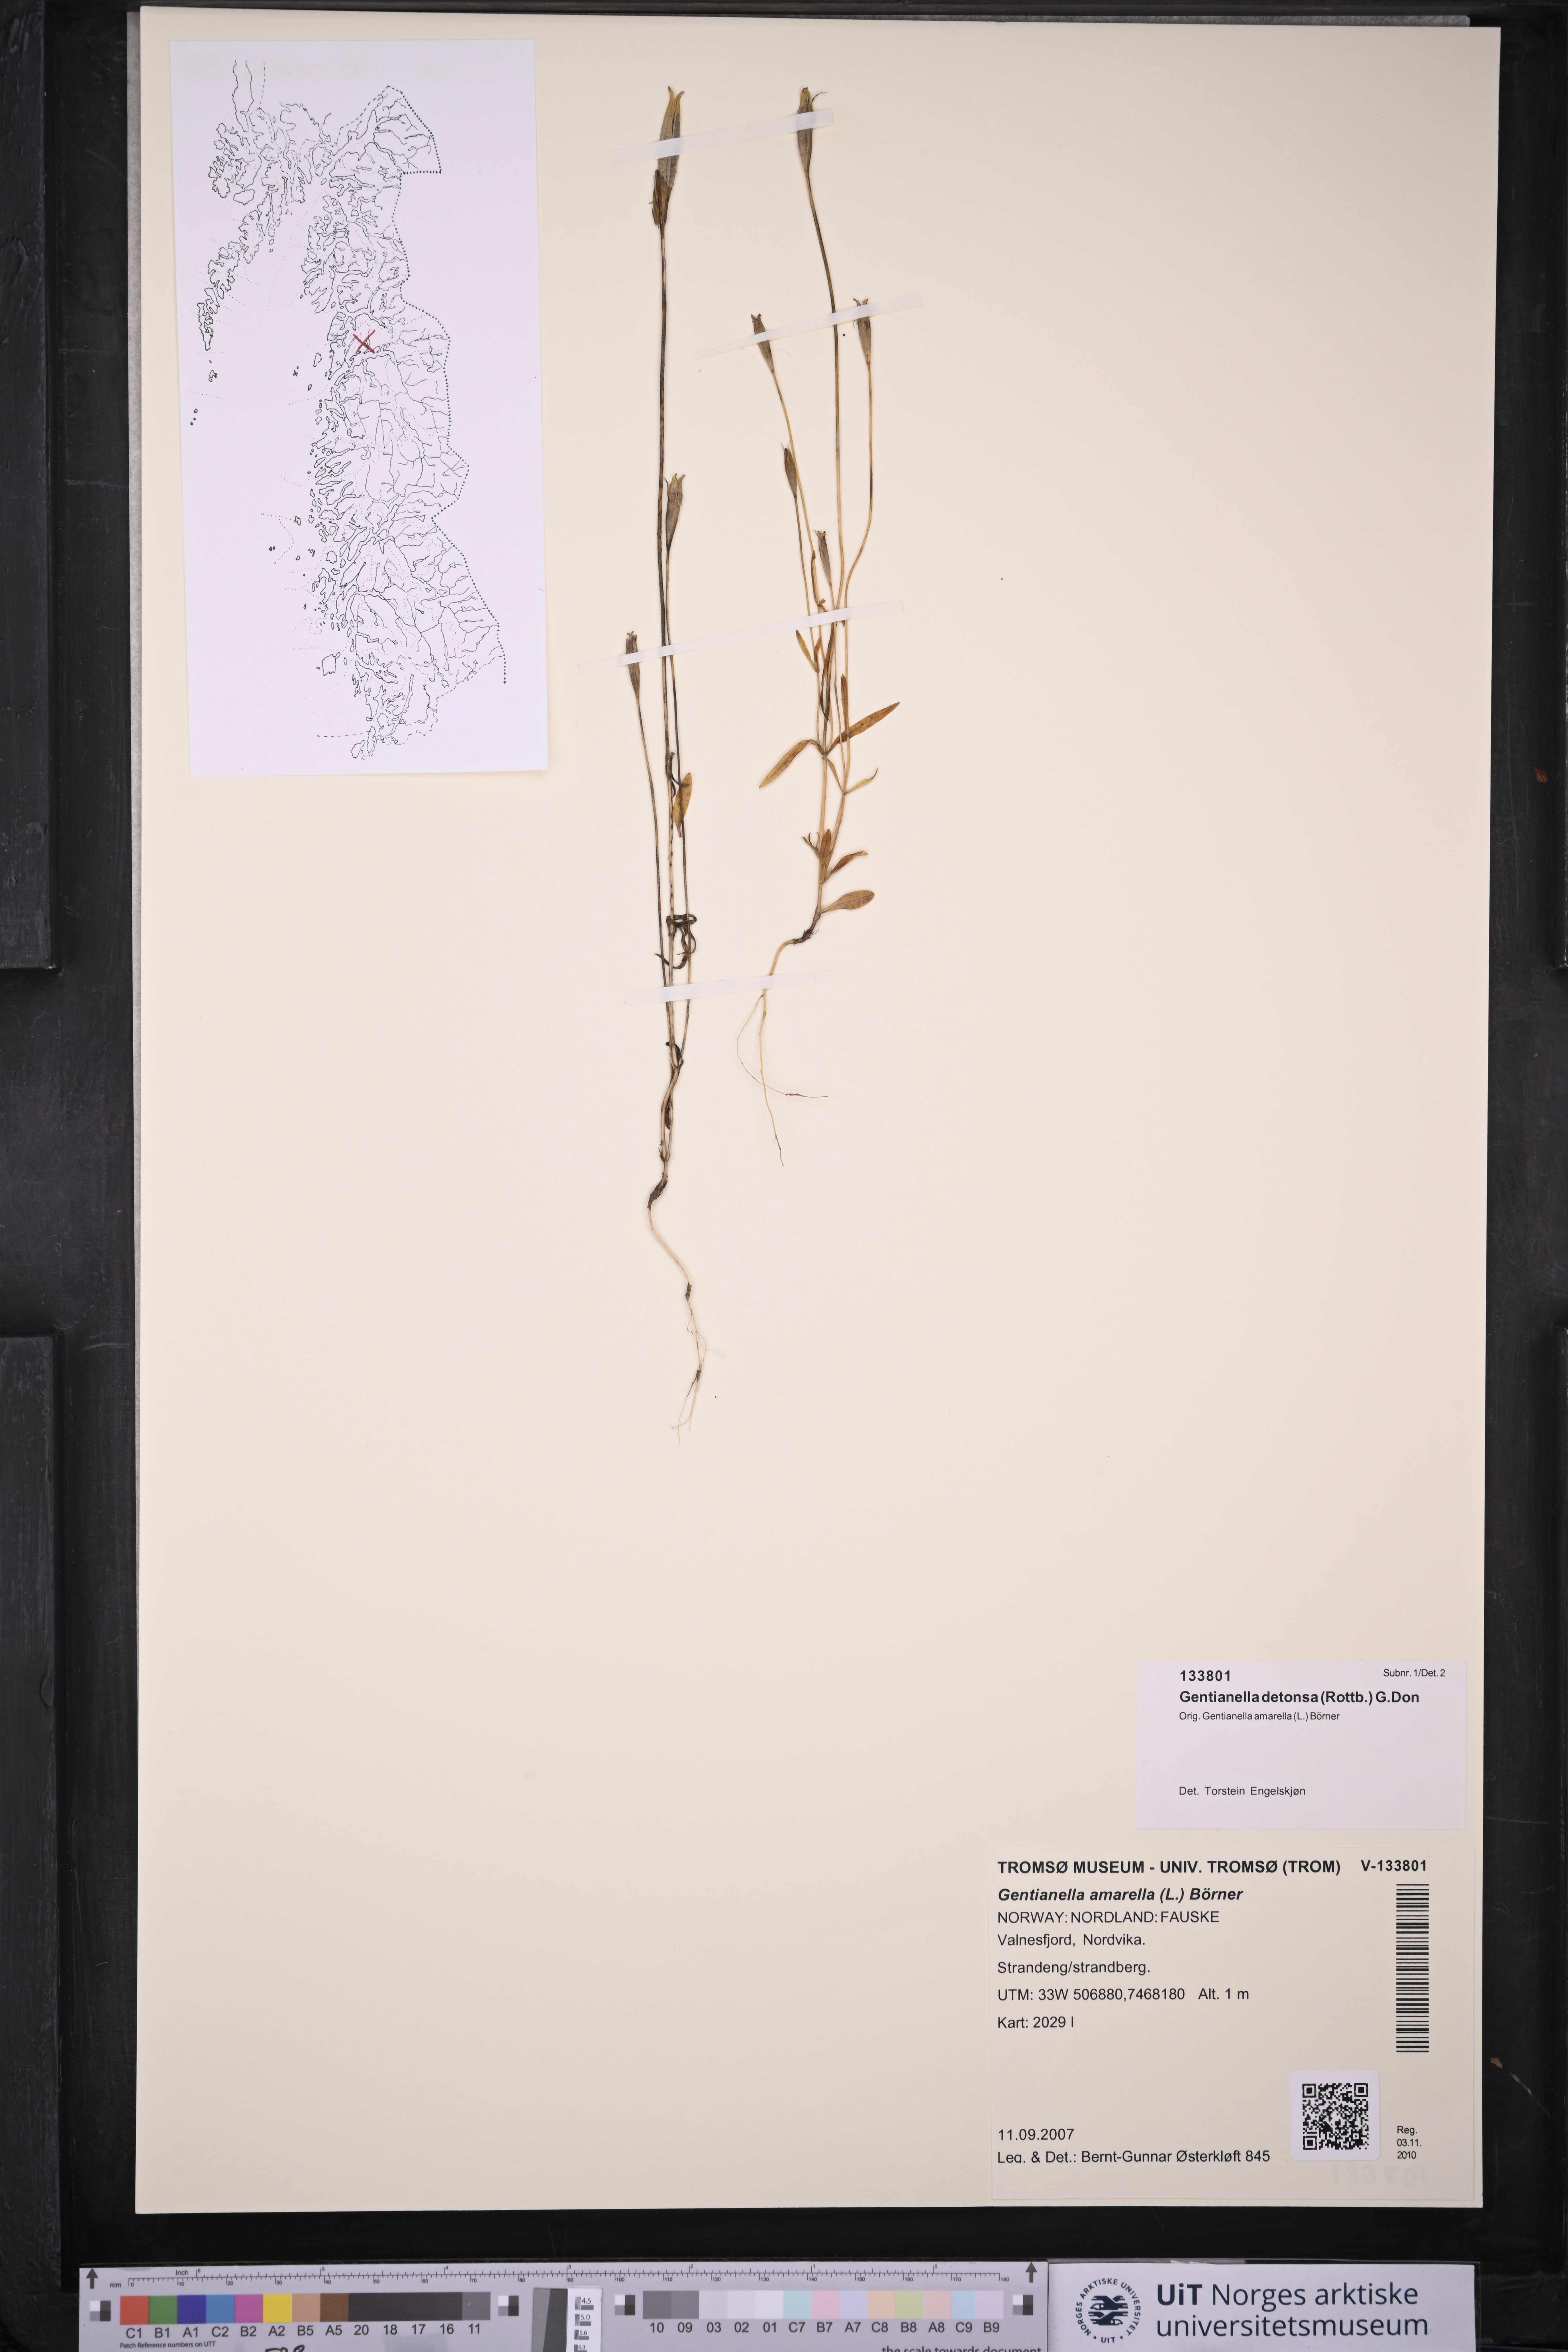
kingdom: Plantae
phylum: Tracheophyta
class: Magnoliopsida
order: Gentianales
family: Gentianaceae
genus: Gentianopsis
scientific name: Gentianopsis detonsa
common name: Fringed-gentian
